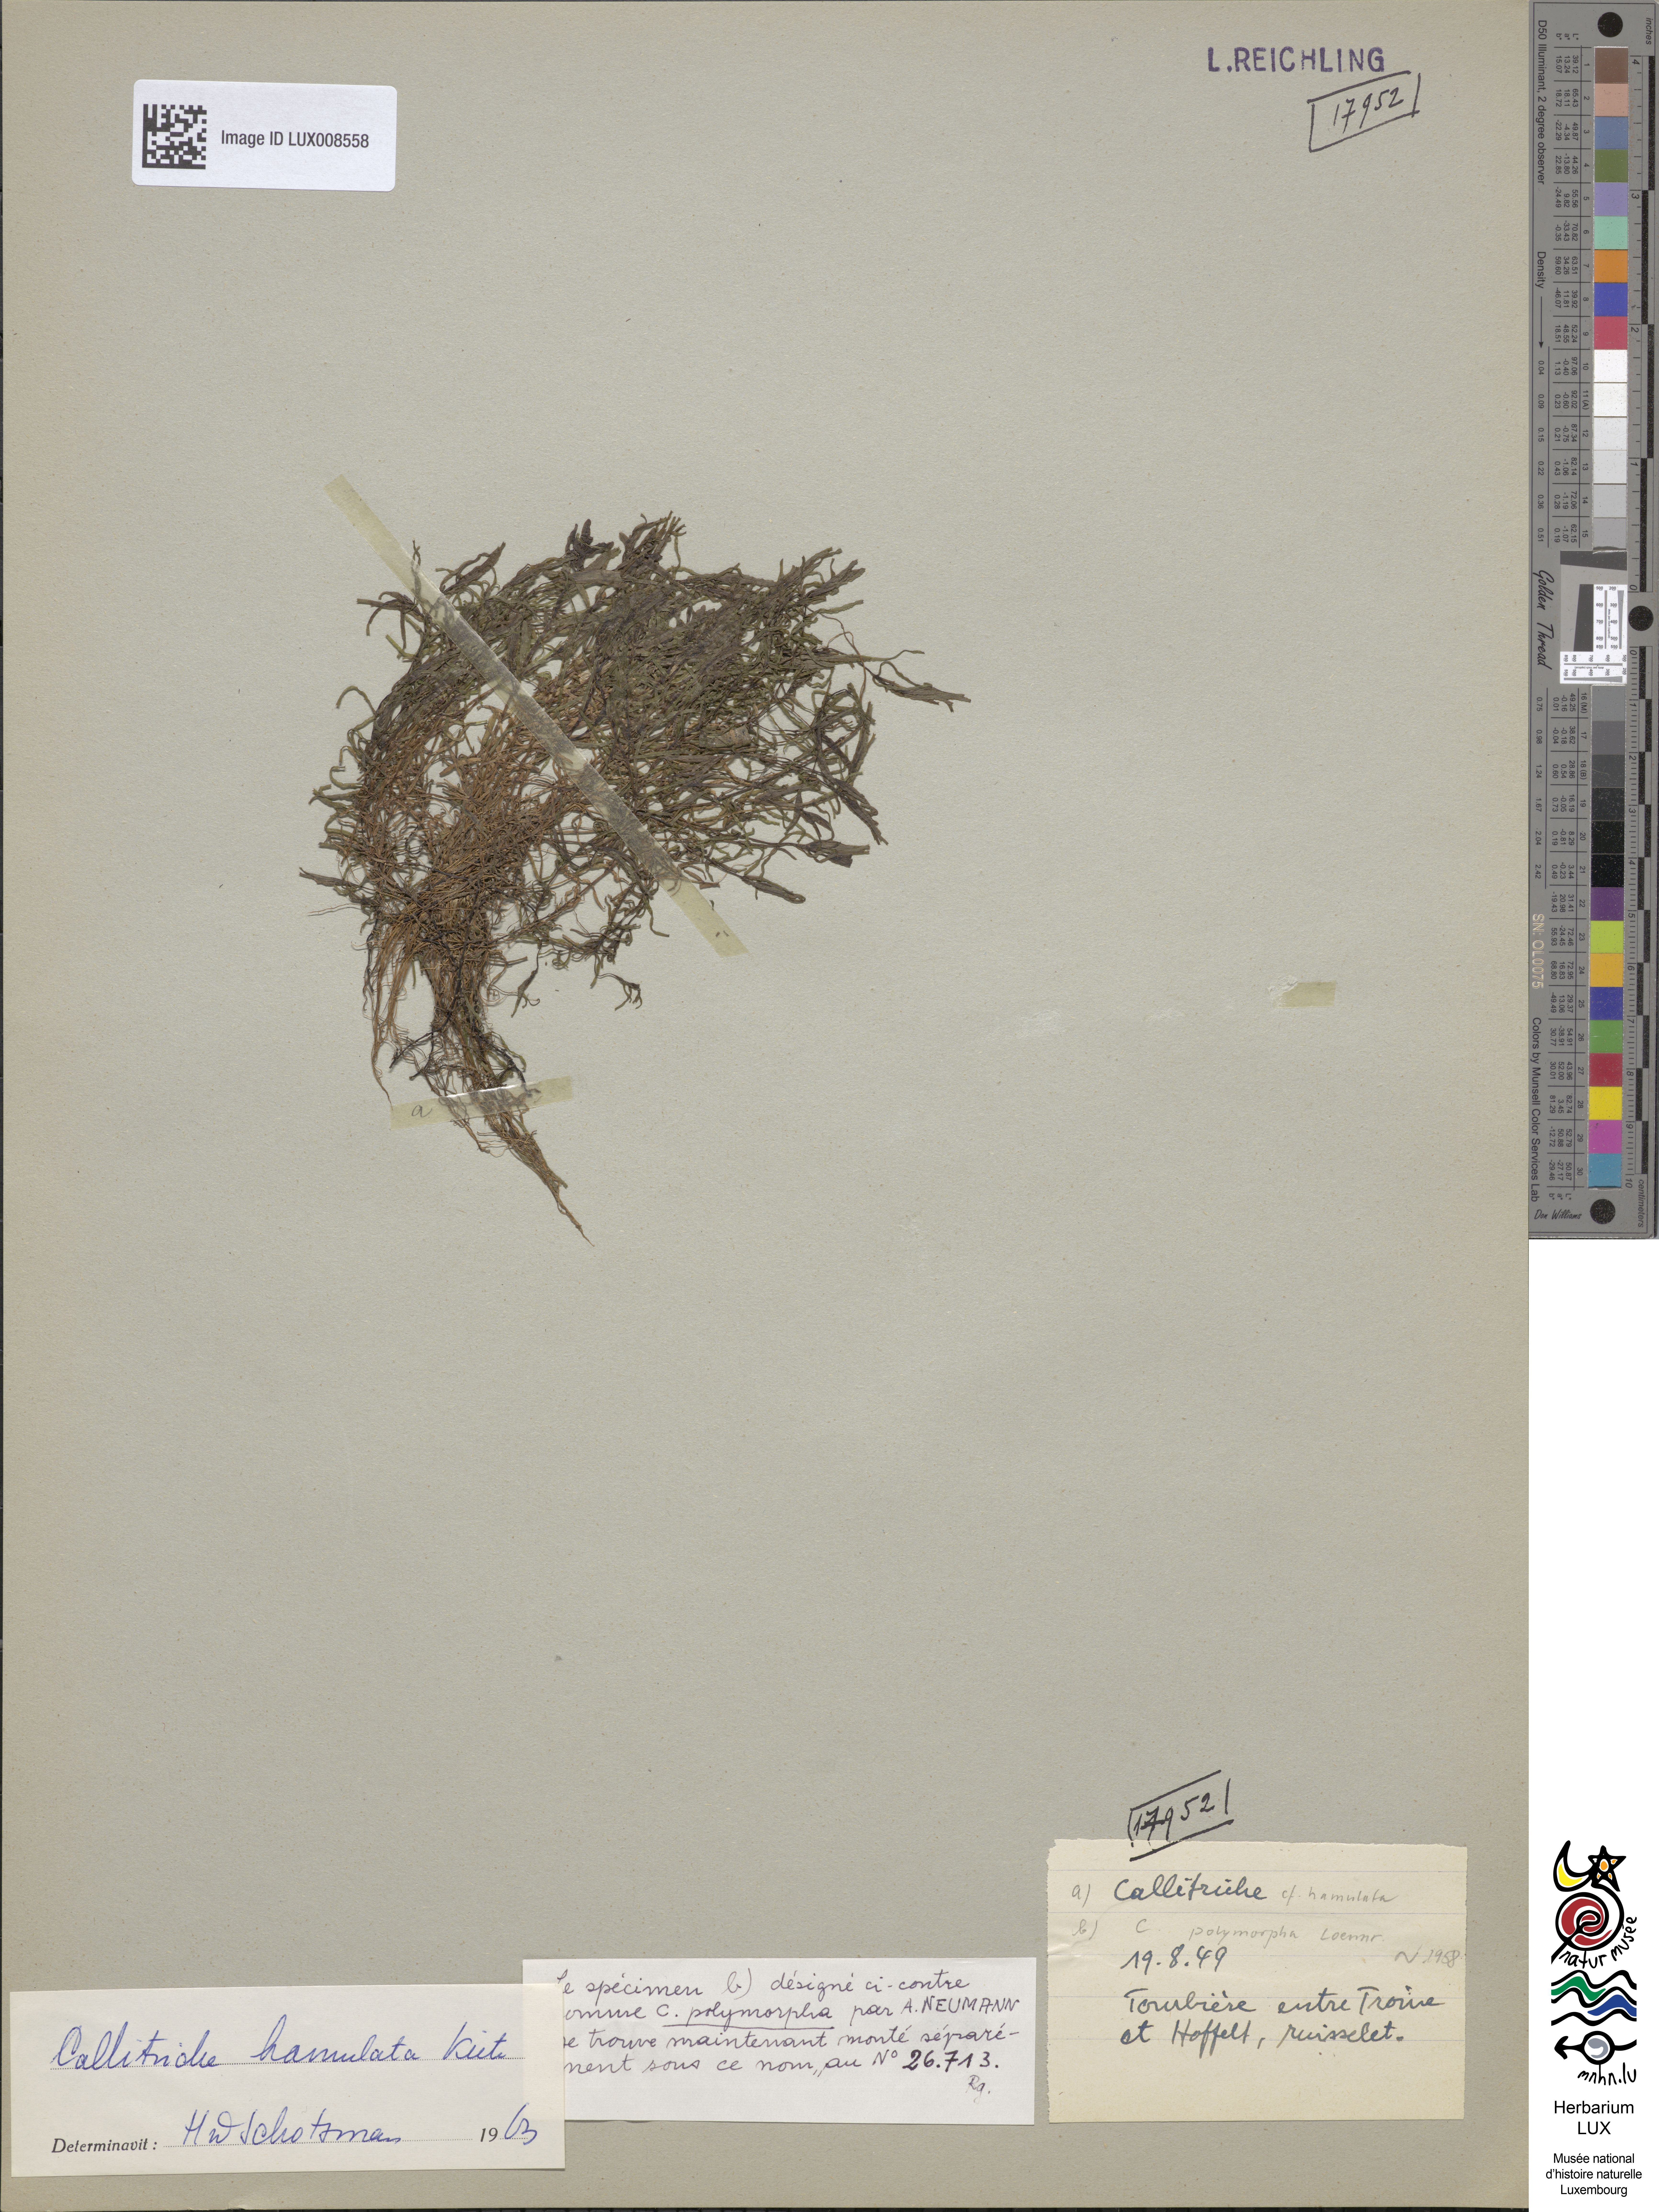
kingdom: Plantae
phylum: Tracheophyta
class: Magnoliopsida
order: Lamiales
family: Plantaginaceae
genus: Callitriche
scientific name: Callitriche
